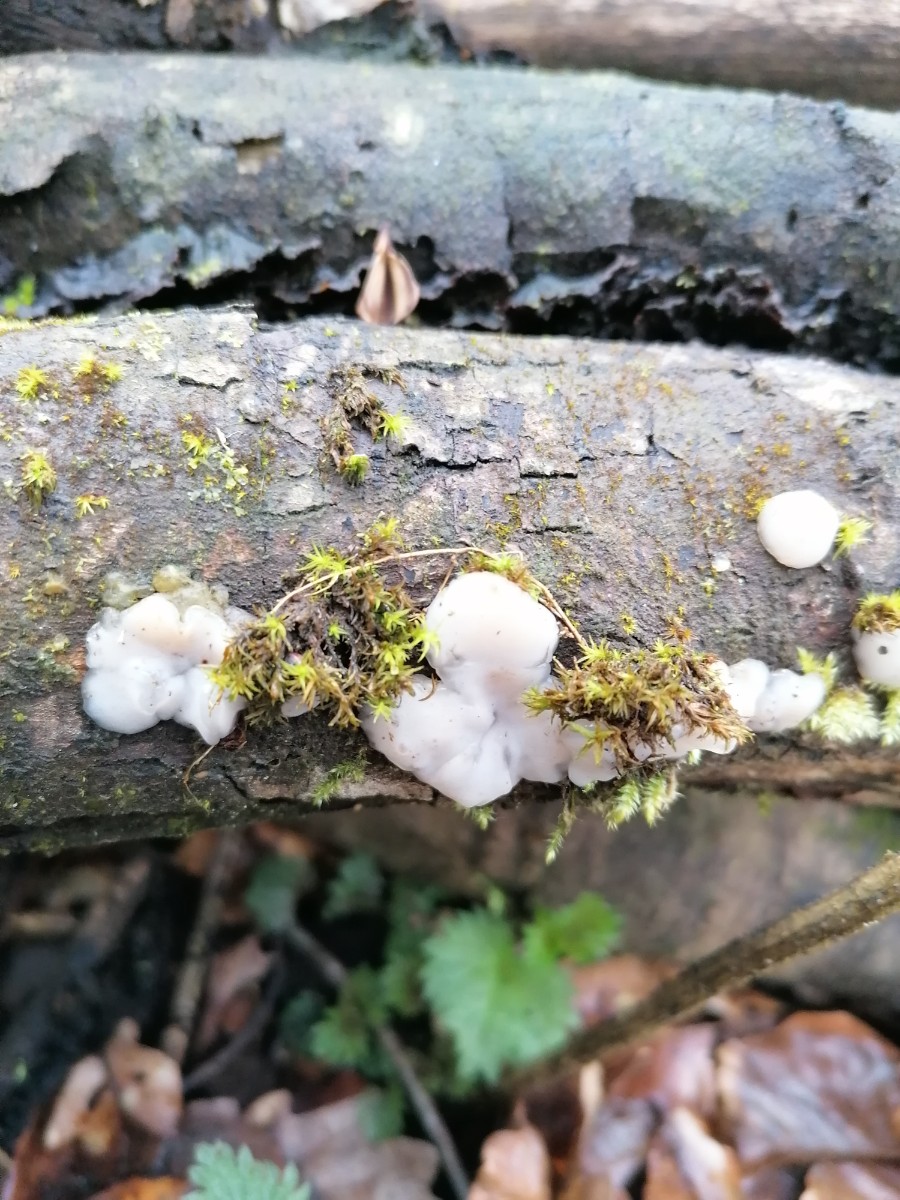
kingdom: Fungi
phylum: Basidiomycota
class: Agaricomycetes
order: Auriculariales
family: Auriculariaceae
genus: Exidia
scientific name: Exidia thuretiana
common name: hvidlig bævretop
